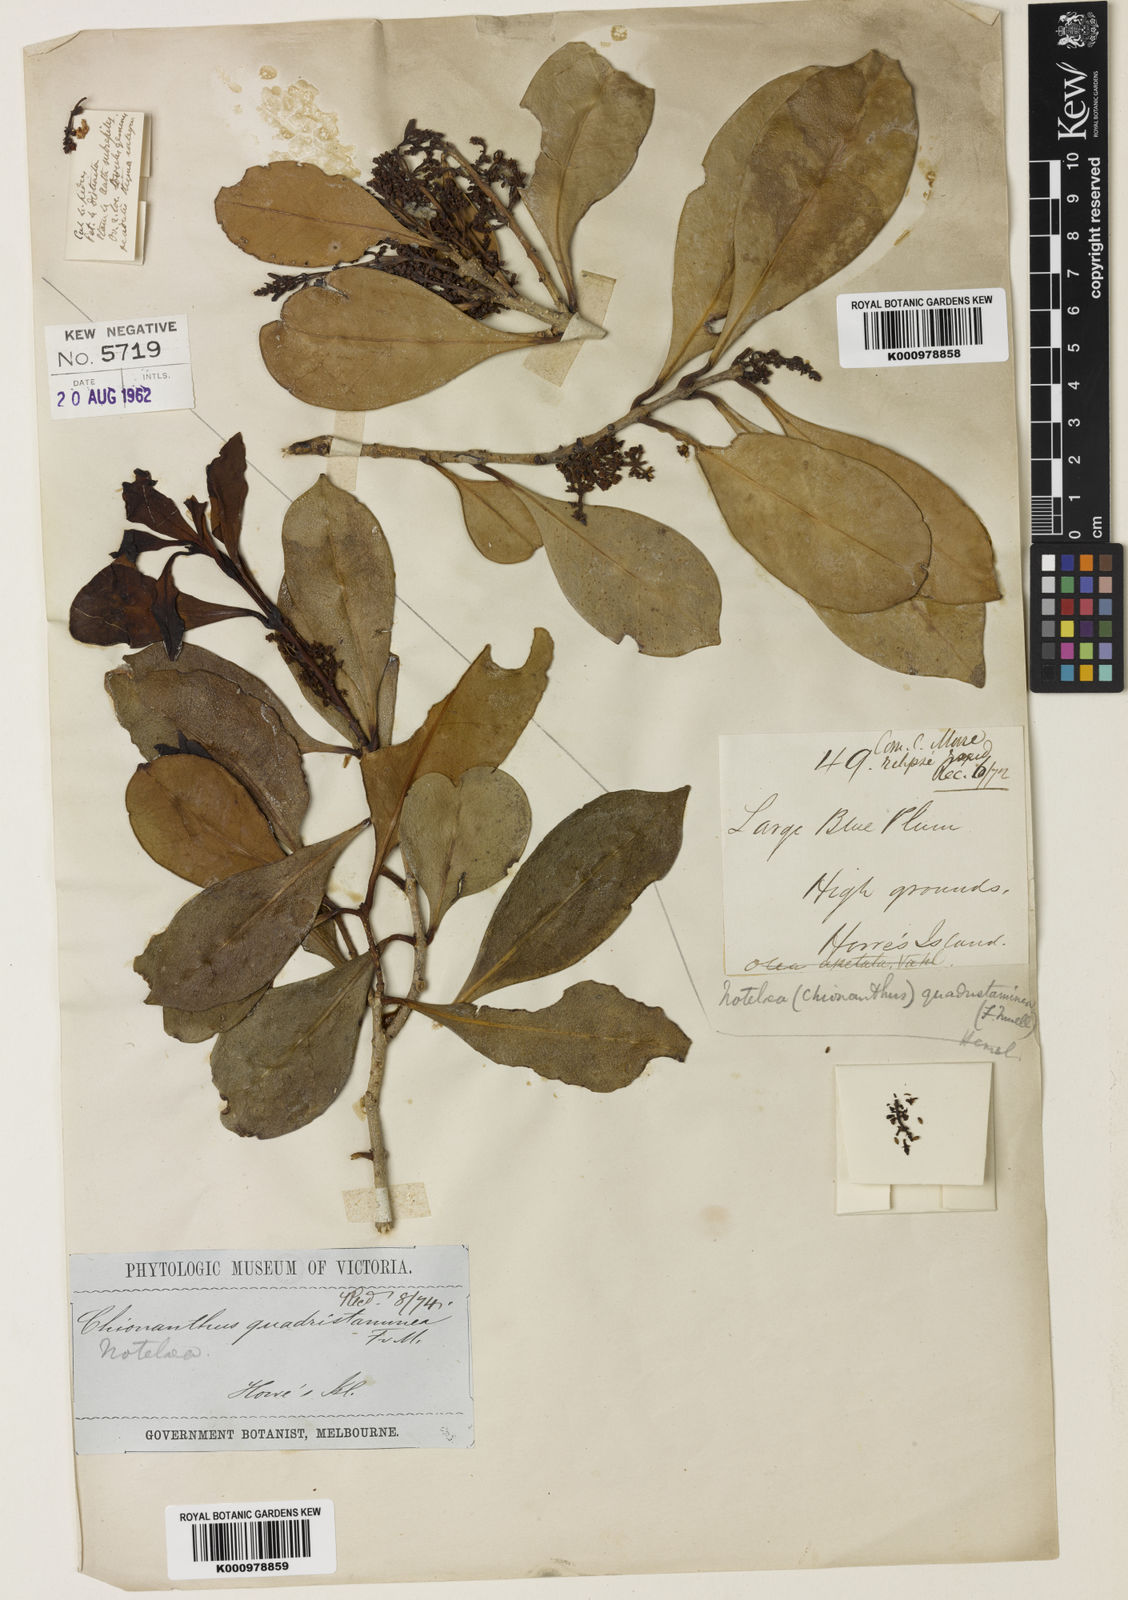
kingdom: Plantae
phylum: Tracheophyta
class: Magnoliopsida
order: Lamiales
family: Oleaceae
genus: Chionanthus
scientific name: Chionanthus quadristamineus
